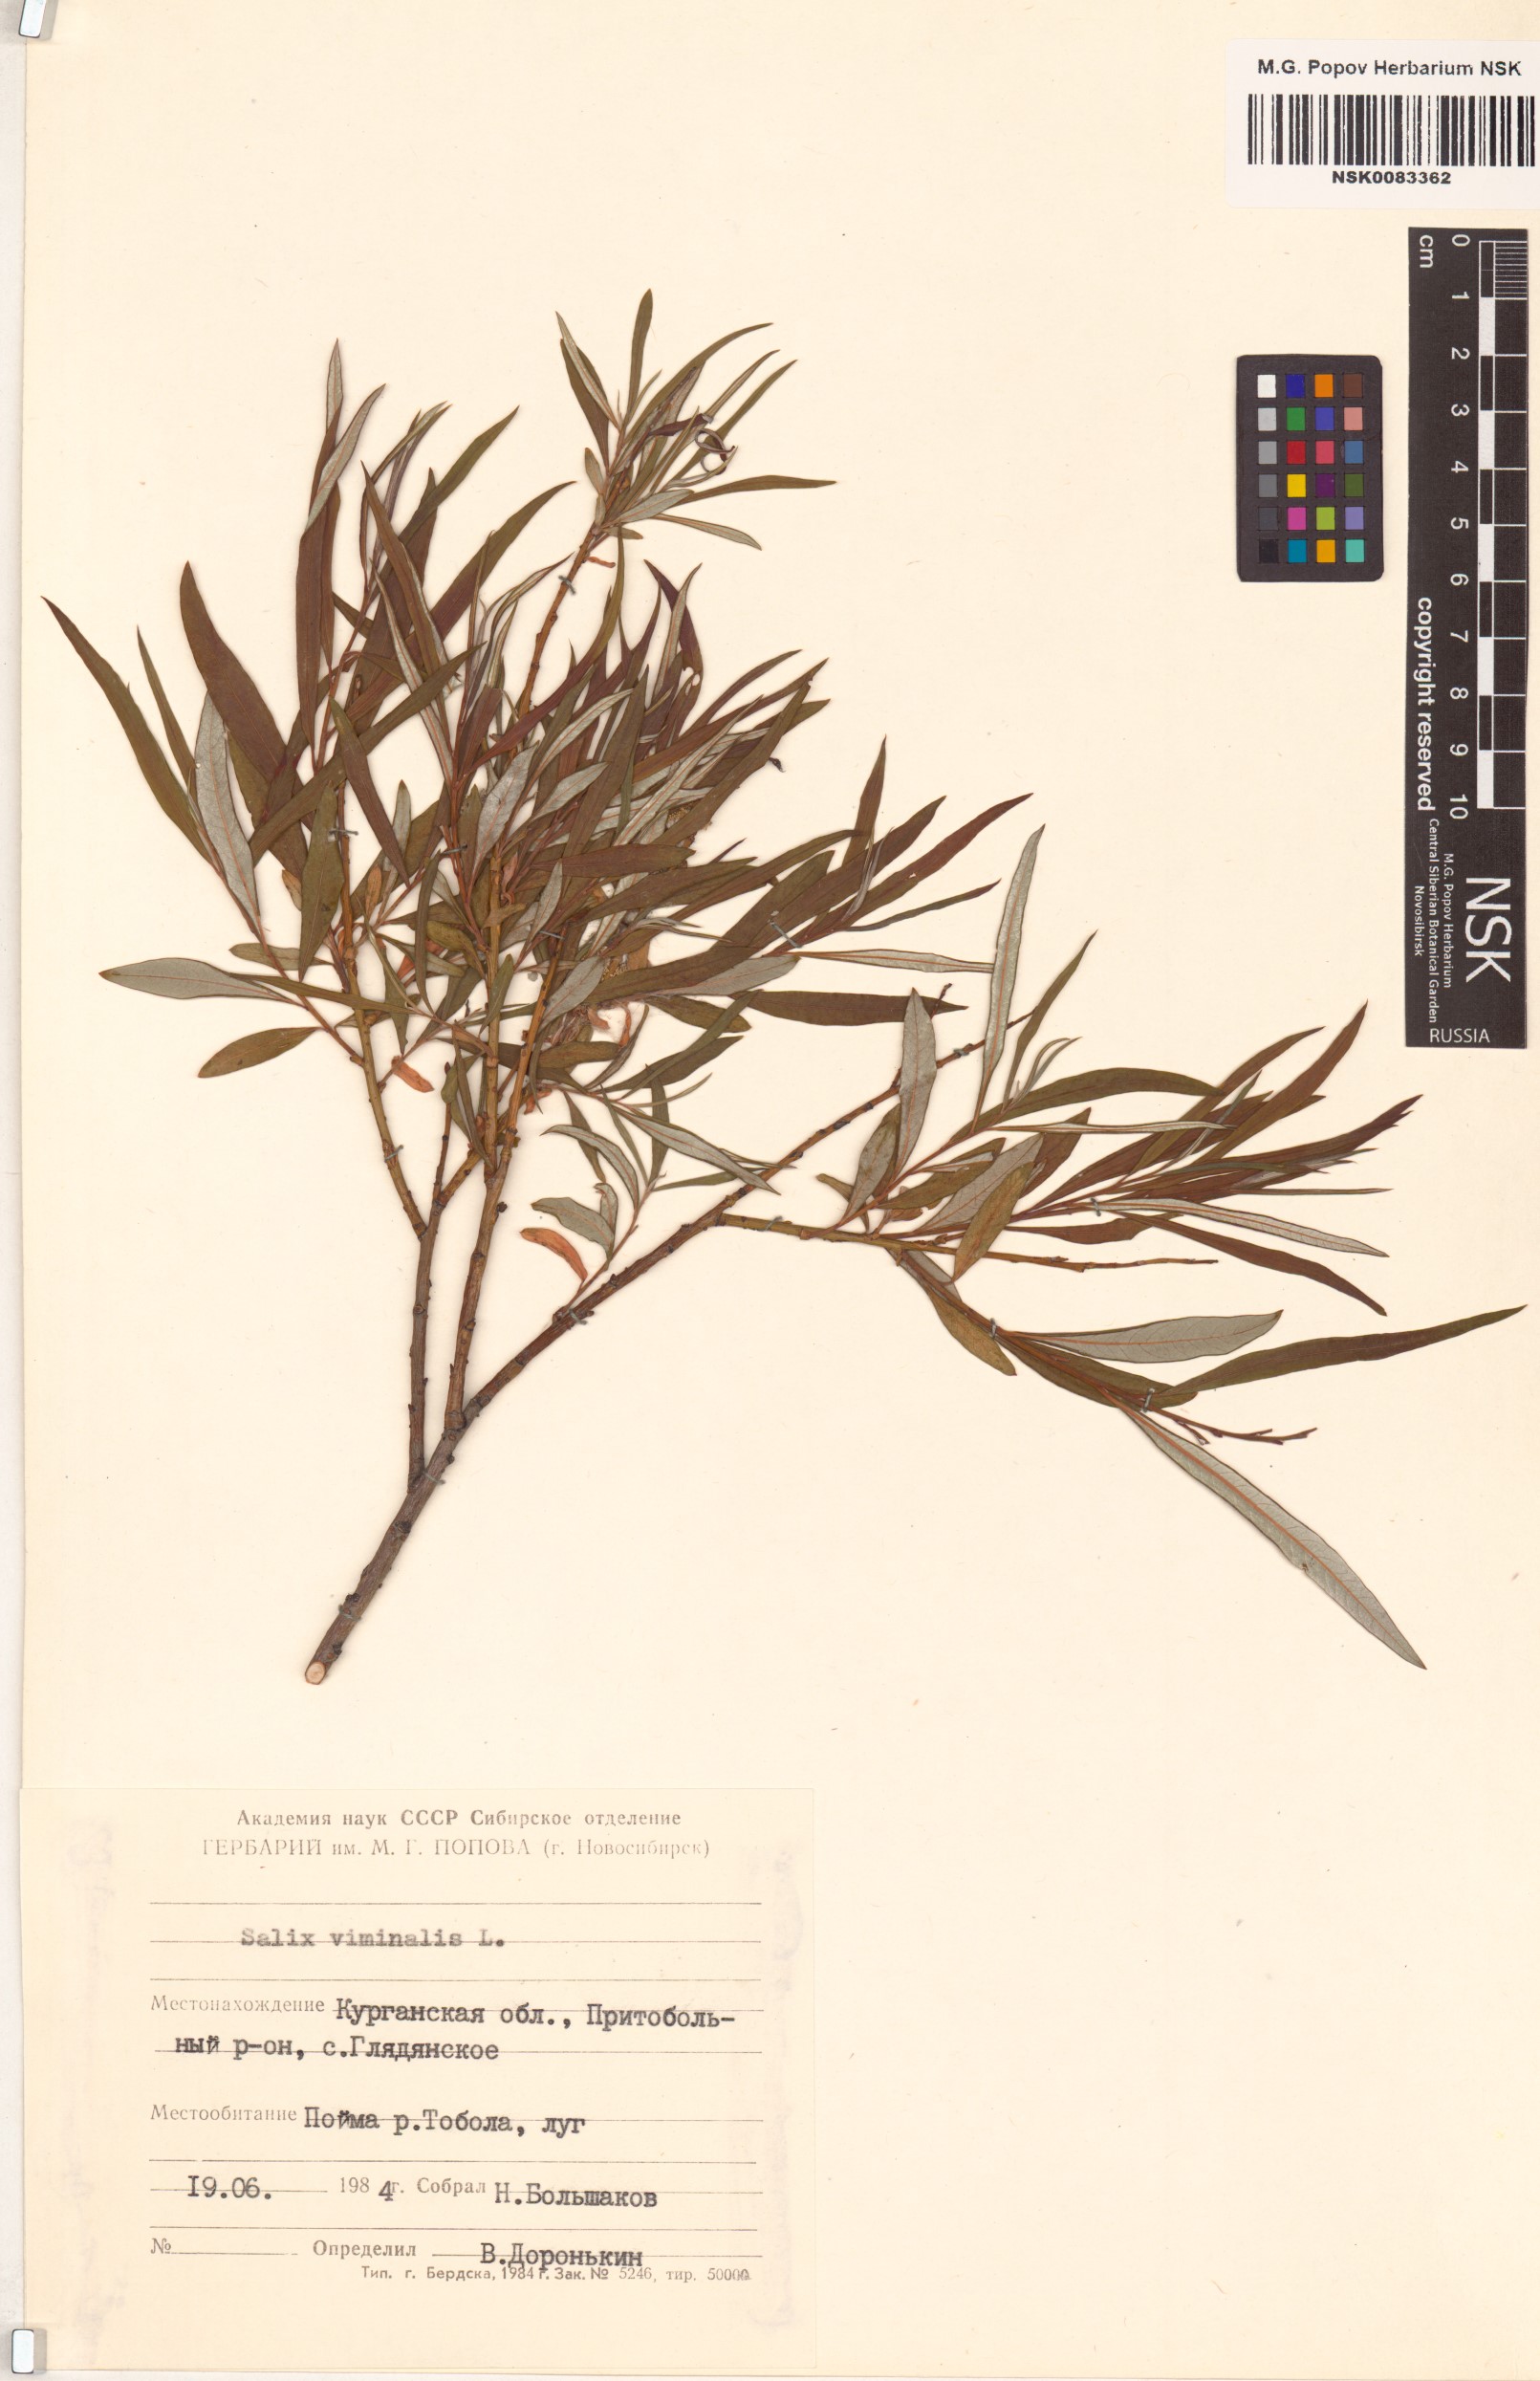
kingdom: Plantae
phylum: Tracheophyta
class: Magnoliopsida
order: Malpighiales
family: Salicaceae
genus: Salix
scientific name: Salix viminalis
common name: Osier
